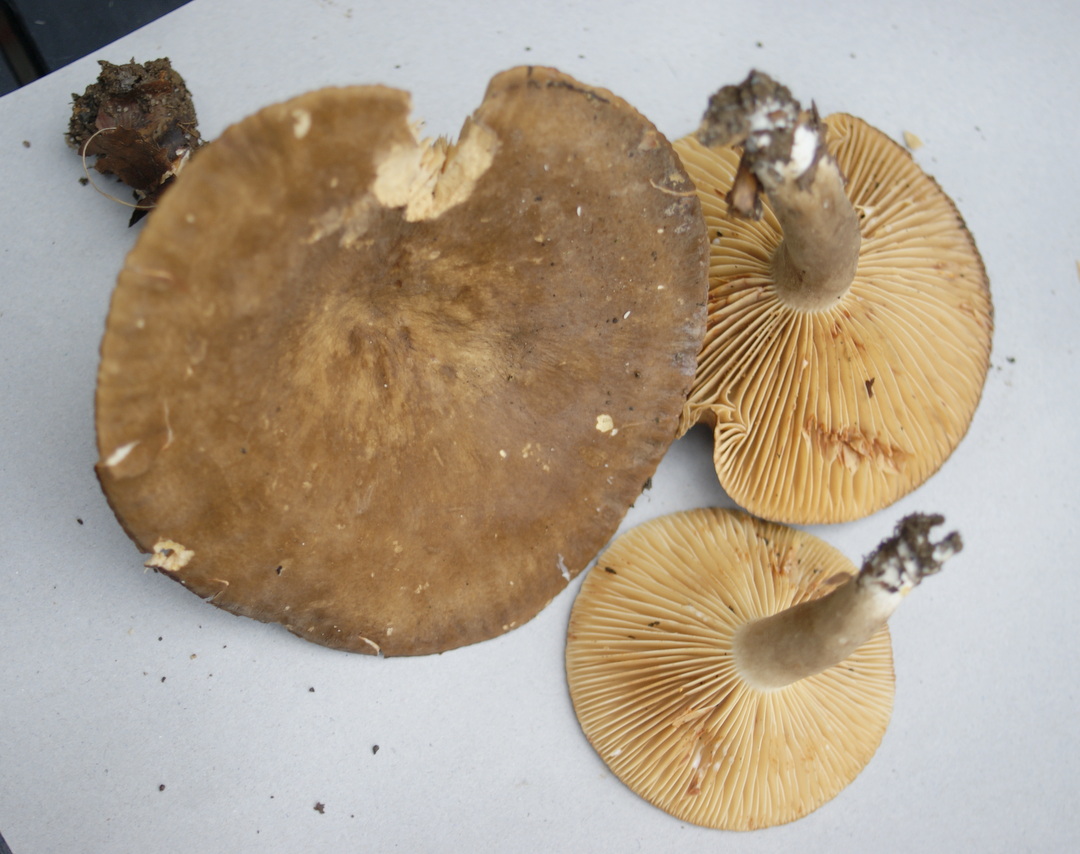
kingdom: Fungi
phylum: Basidiomycota
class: Agaricomycetes
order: Russulales
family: Russulaceae
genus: Lactarius
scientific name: Lactarius romagnesii
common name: fjernbladet mælkehat
